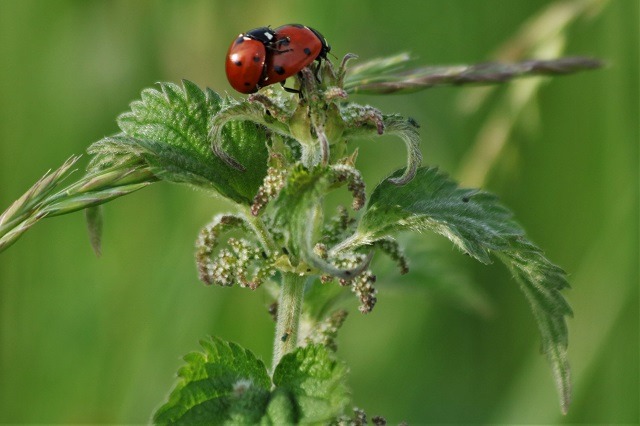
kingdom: Animalia
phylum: Arthropoda
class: Insecta
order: Coleoptera
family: Coccinellidae
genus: Coccinella
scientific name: Coccinella septempunctata
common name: Syvplettet mariehøne
